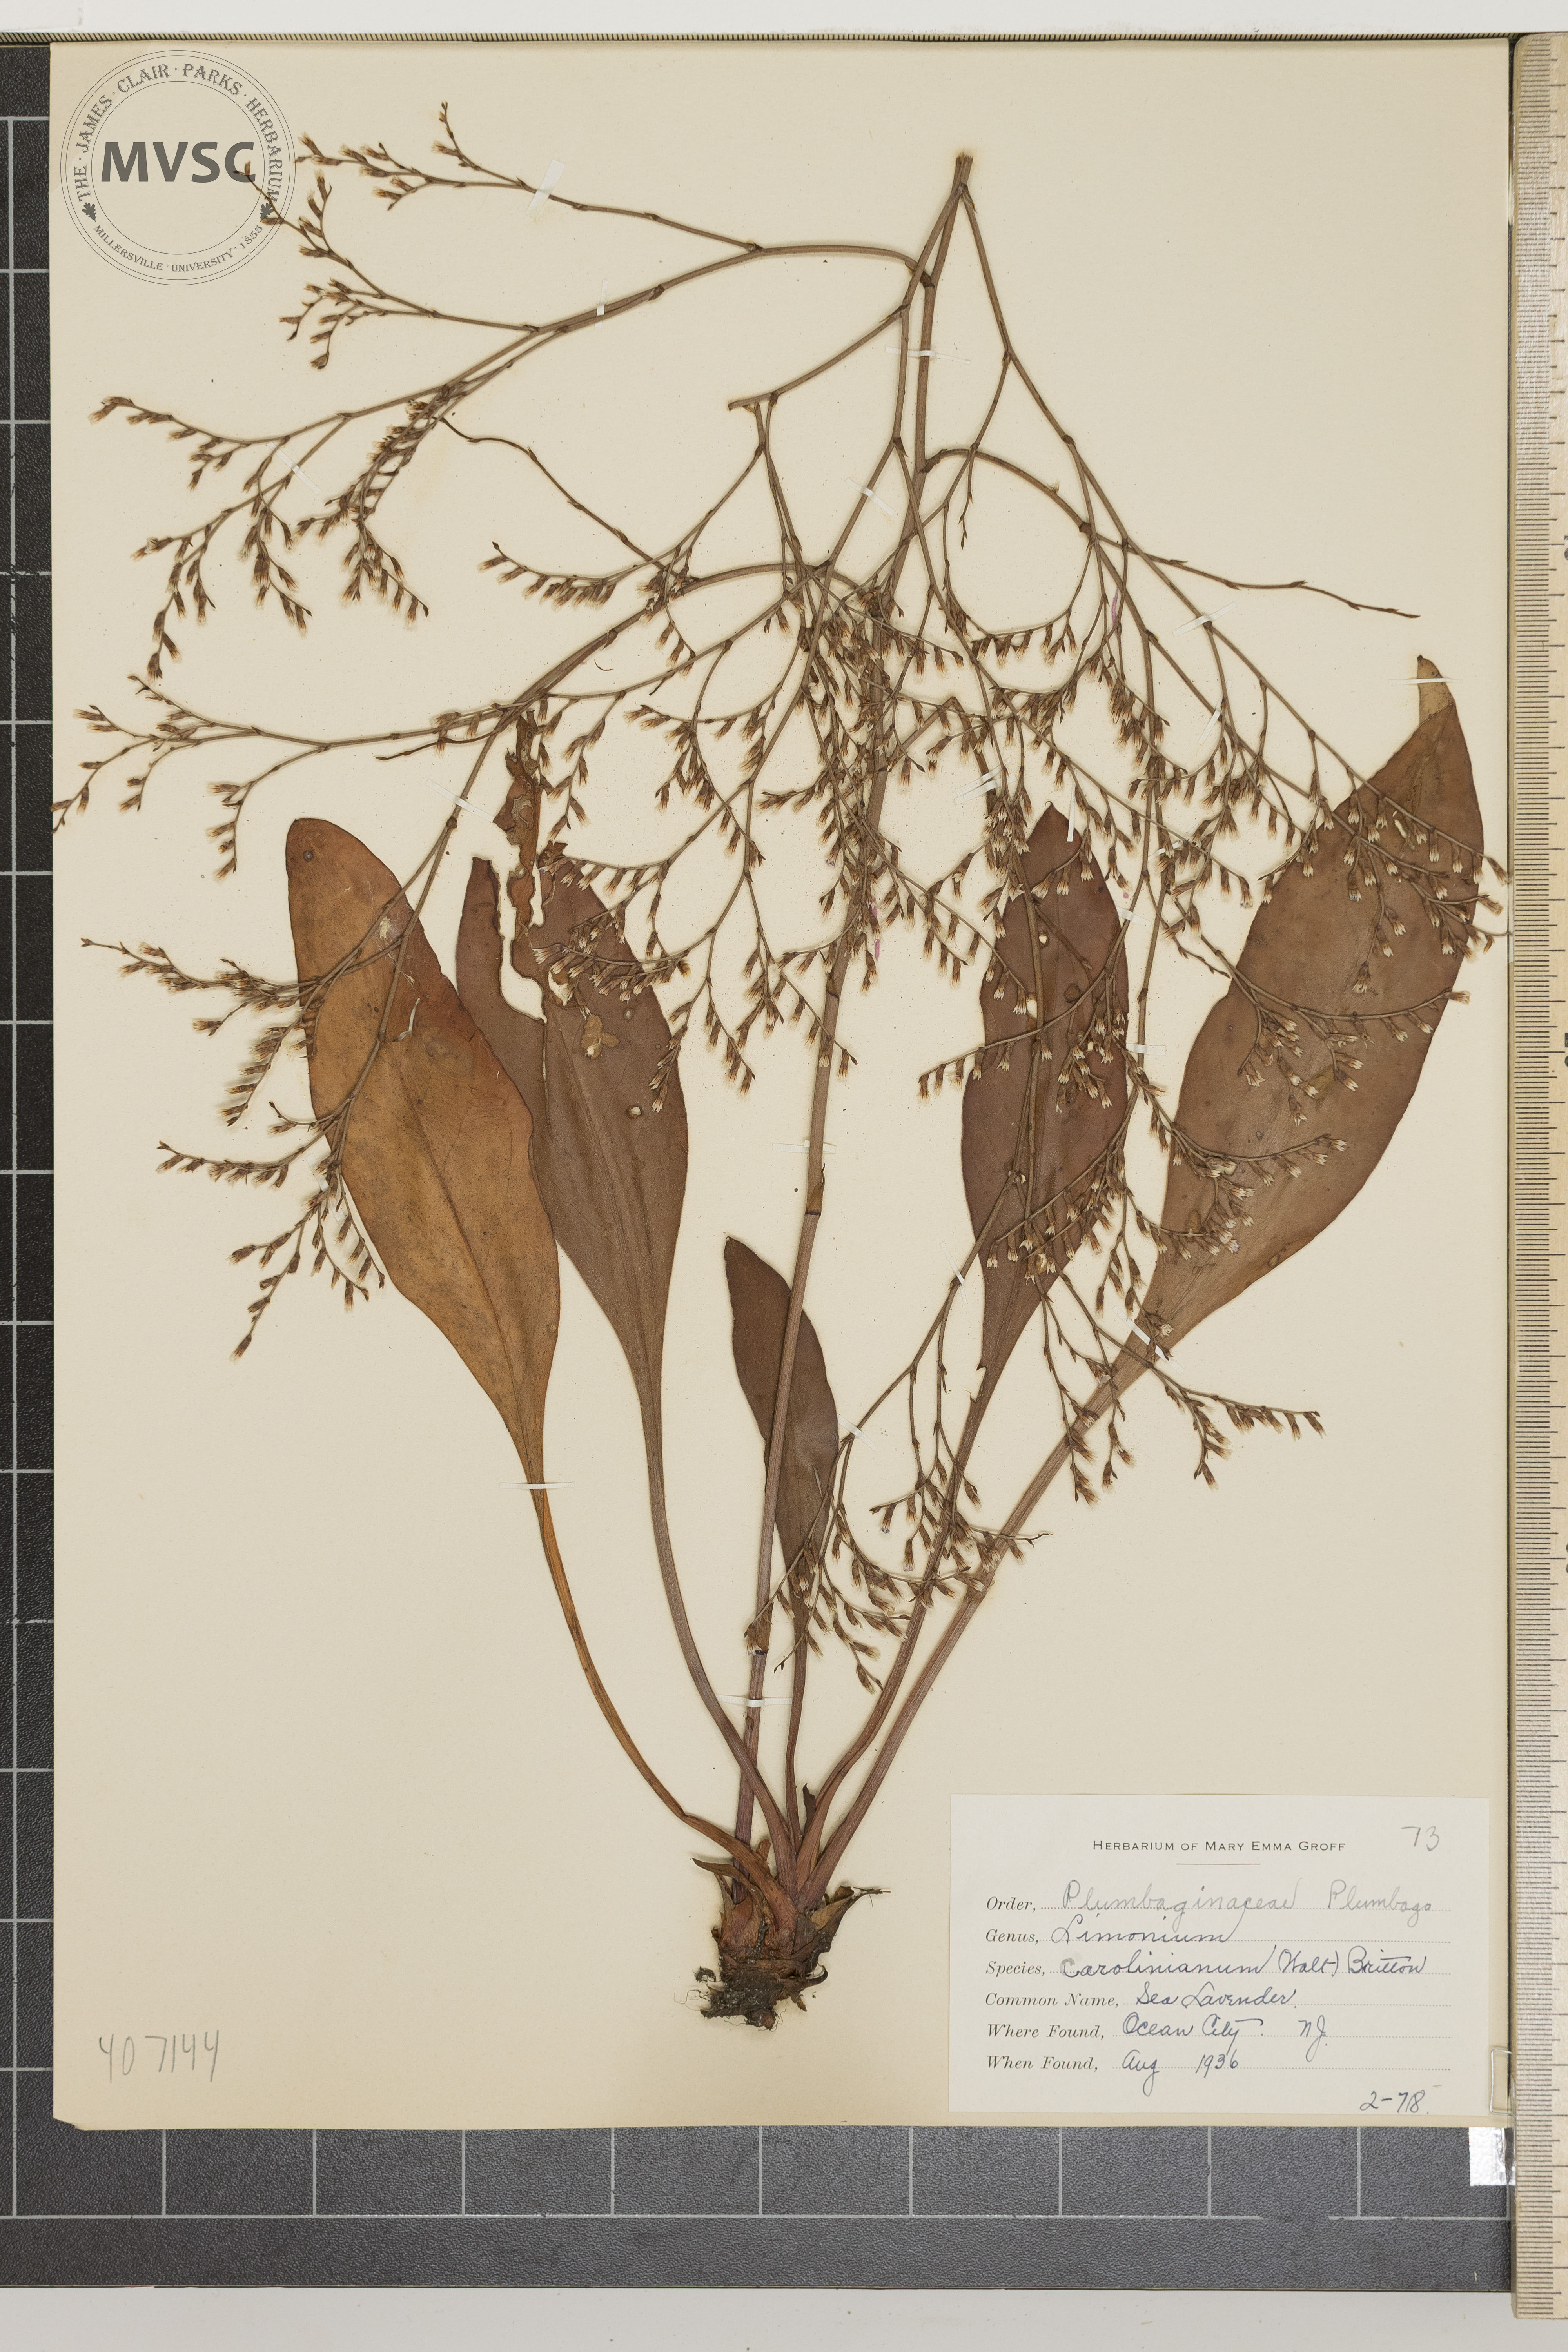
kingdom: Plantae
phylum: Tracheophyta
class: Magnoliopsida
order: Caryophyllales
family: Plumbaginaceae
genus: Limonium
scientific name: Limonium carolinianum
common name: Sea Lavender
